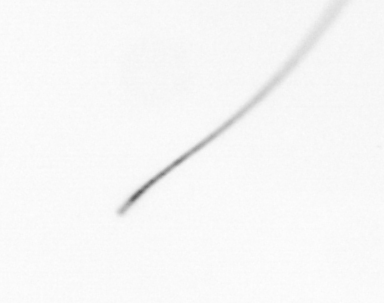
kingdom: Chromista
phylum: Ochrophyta
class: Bacillariophyceae
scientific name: Bacillariophyceae
